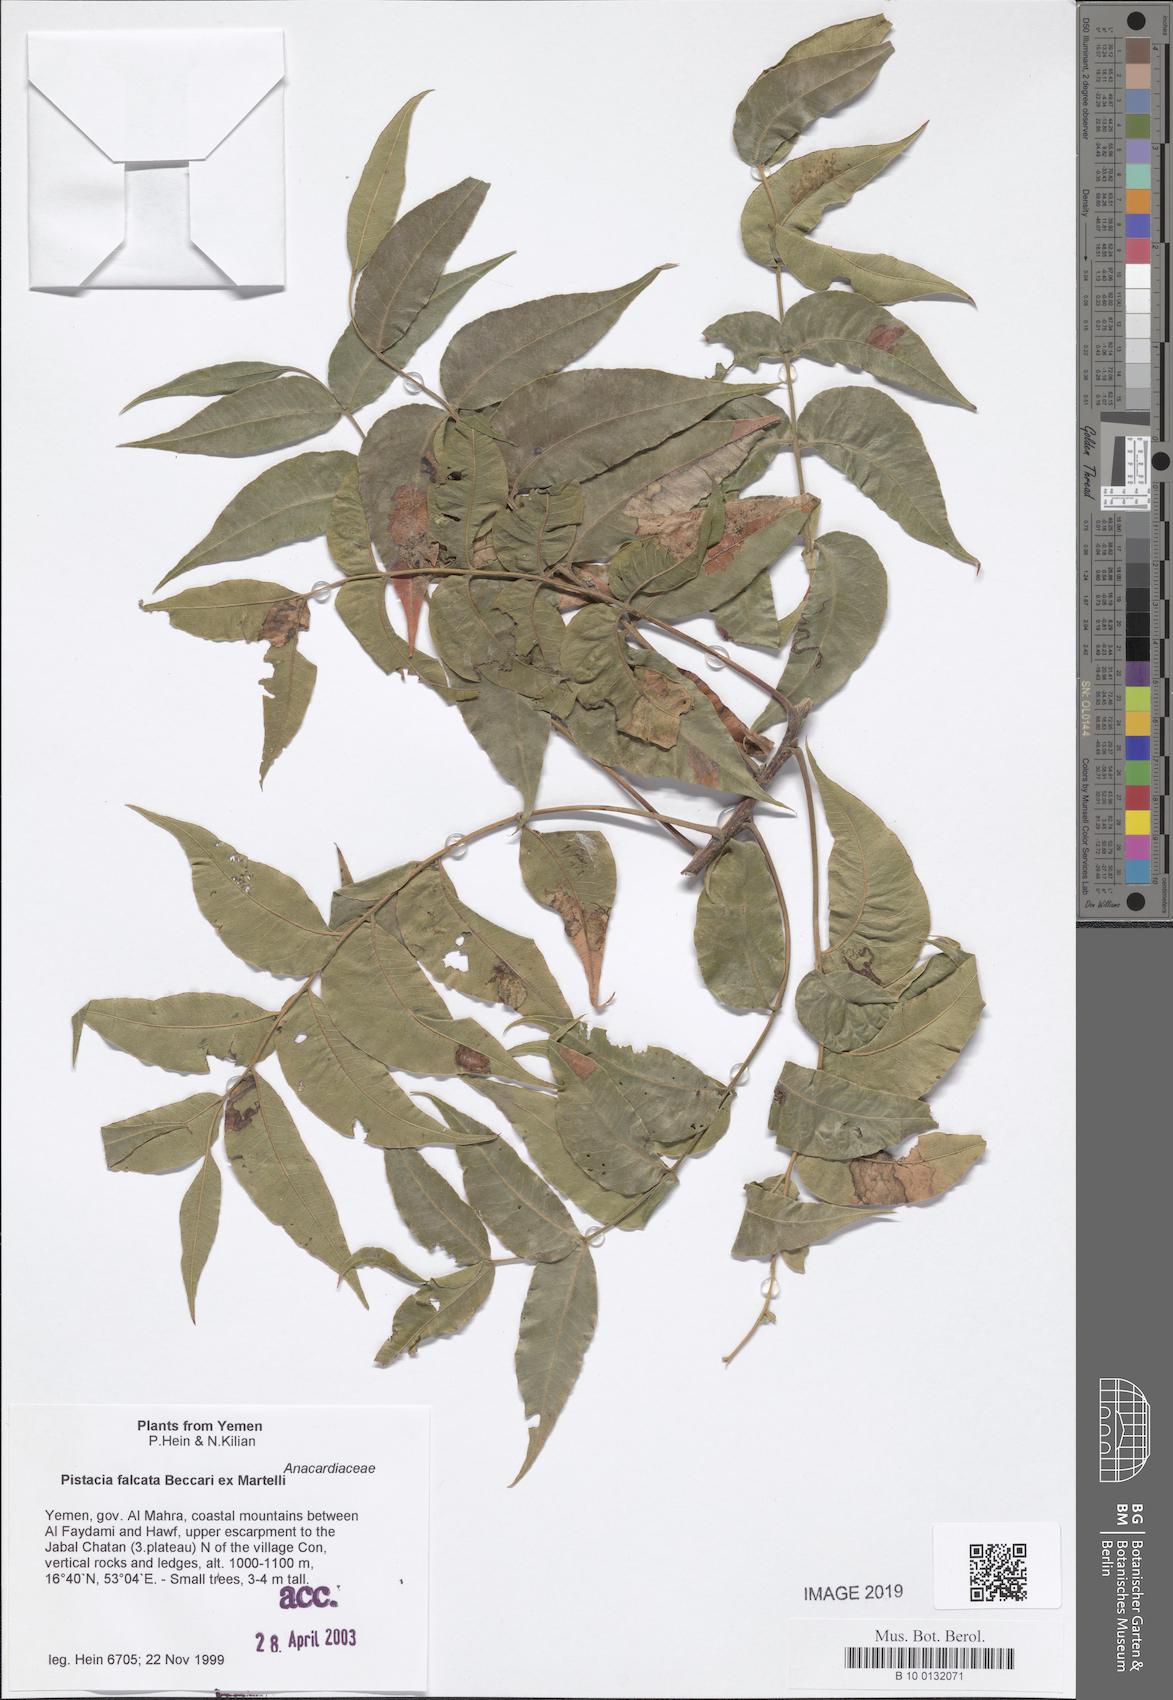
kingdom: Plantae
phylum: Tracheophyta
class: Magnoliopsida
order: Sapindales
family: Anacardiaceae
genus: Pistacia
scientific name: Pistacia falcata
